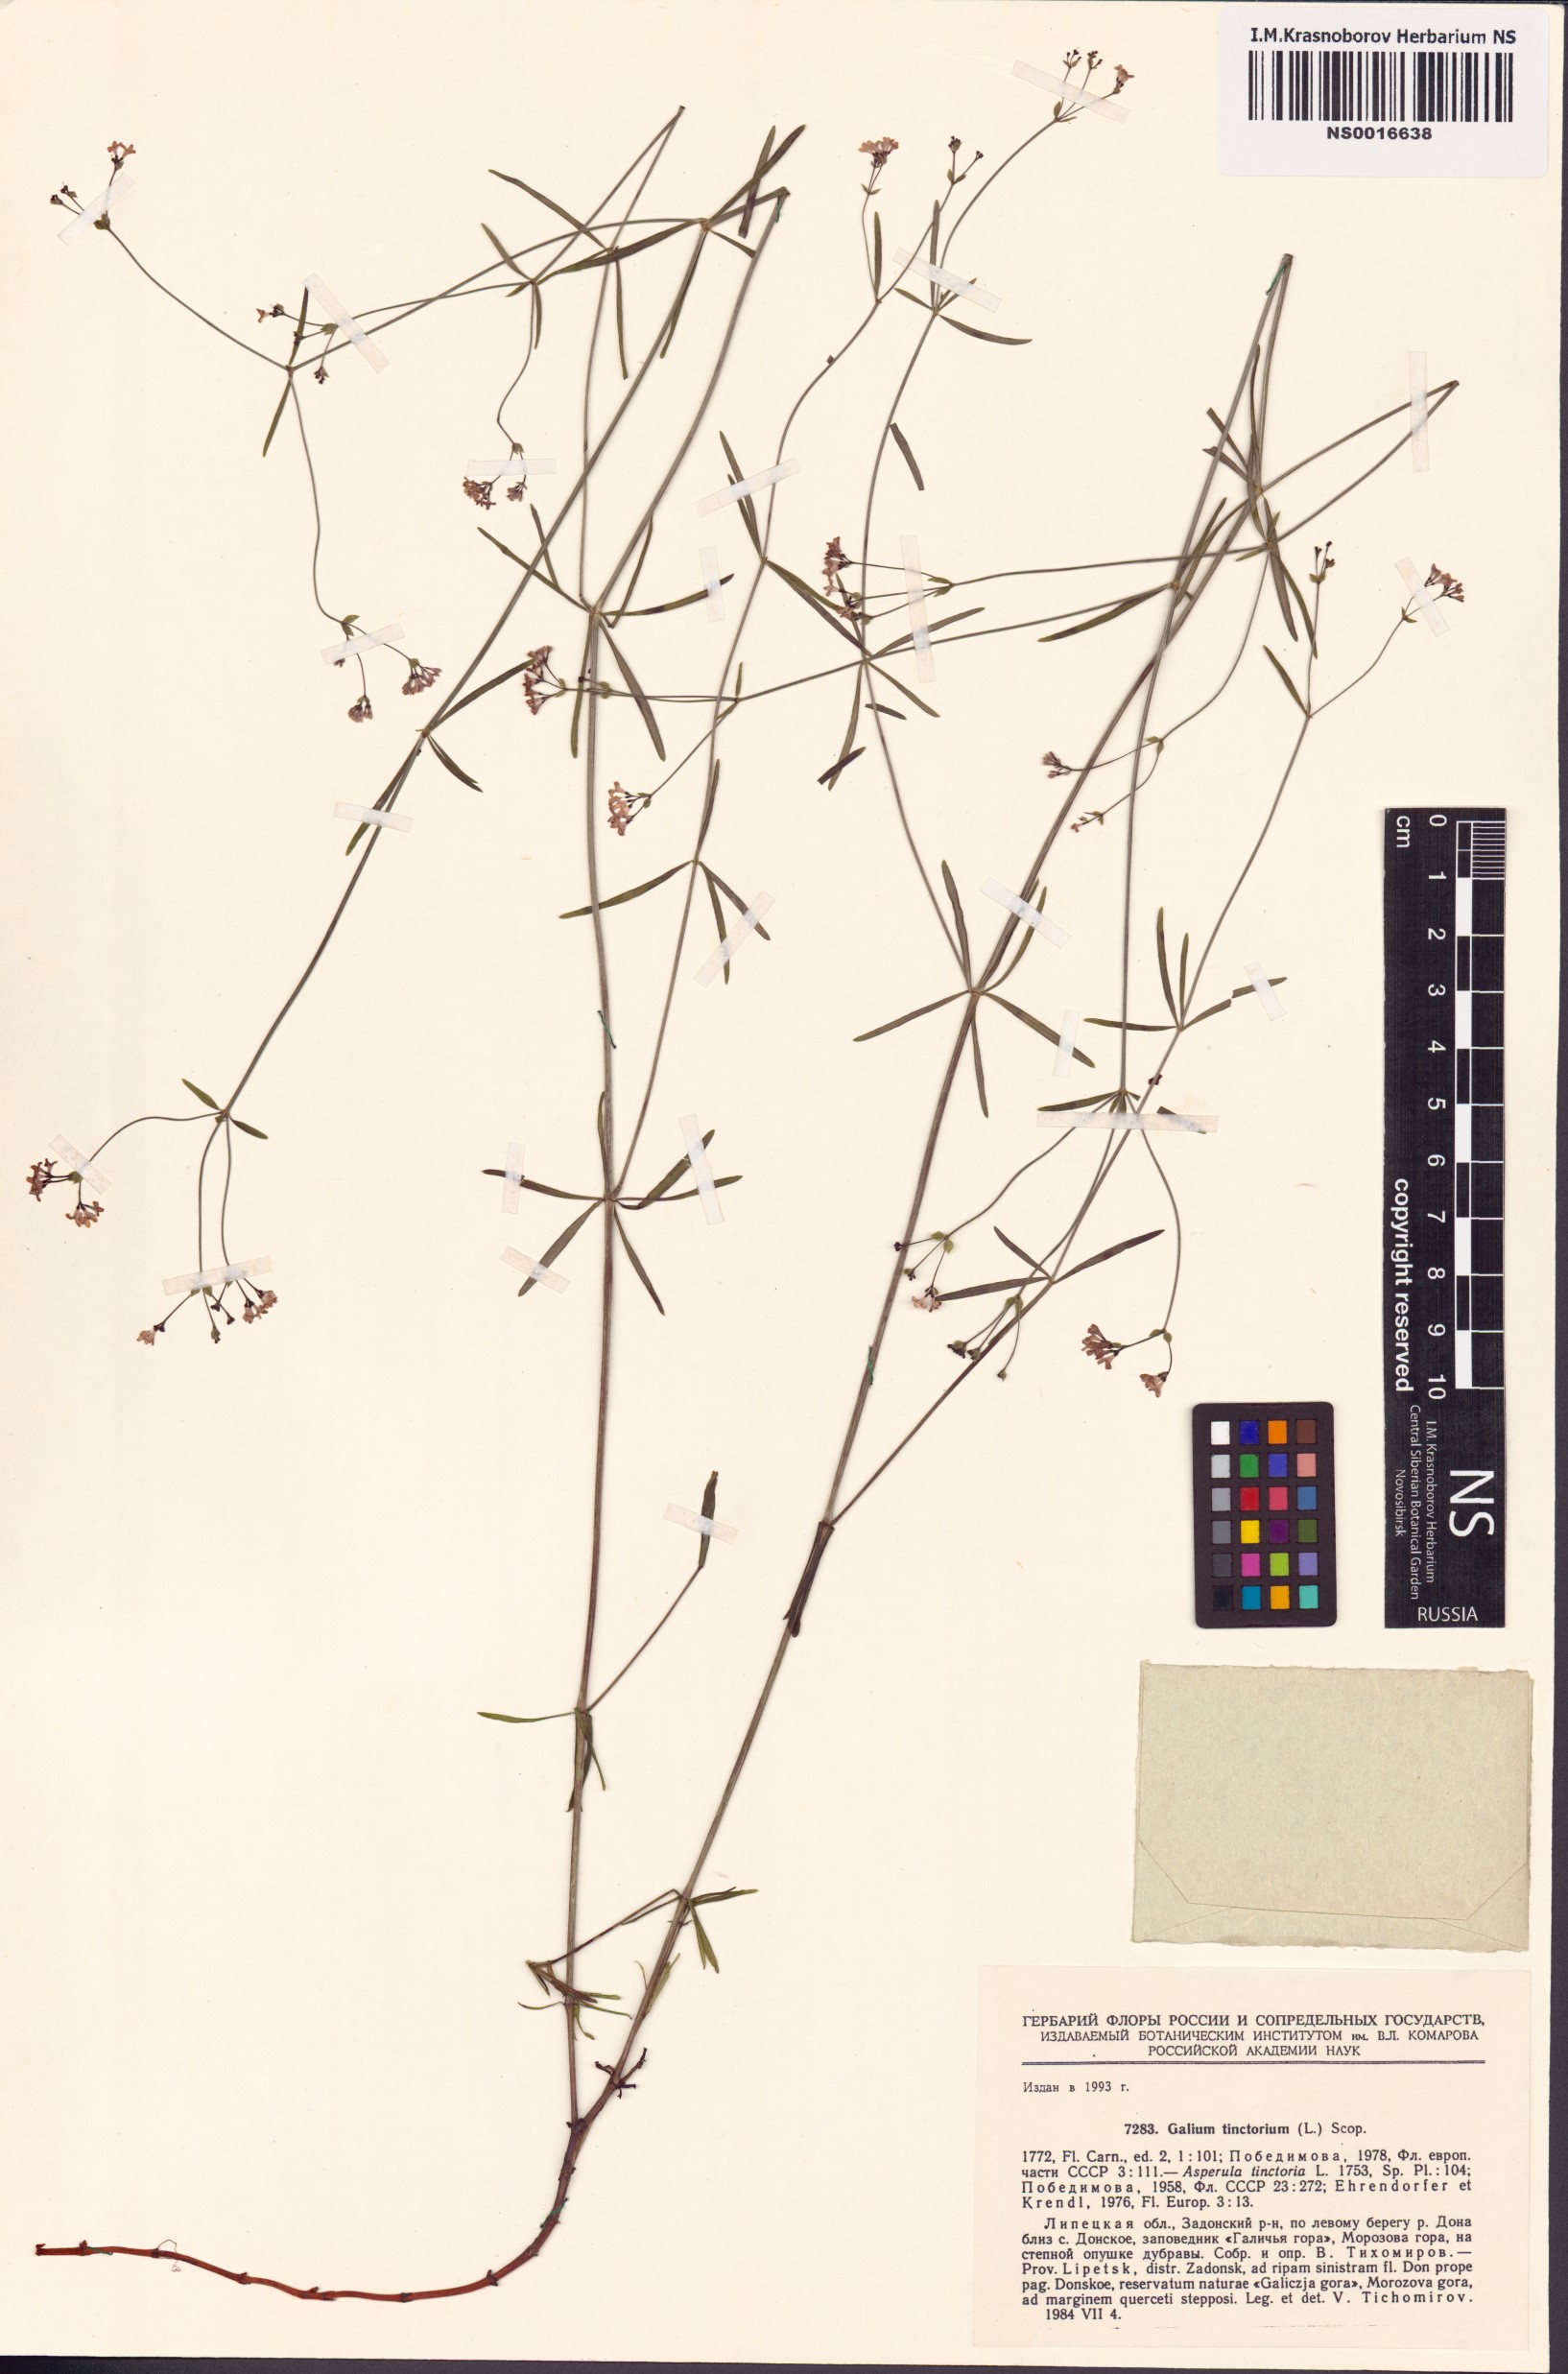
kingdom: Plantae
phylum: Tracheophyta
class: Magnoliopsida
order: Gentianales
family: Rubiaceae
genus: Asperula
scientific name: Asperula tinctoria
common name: Dyer's woodruff
